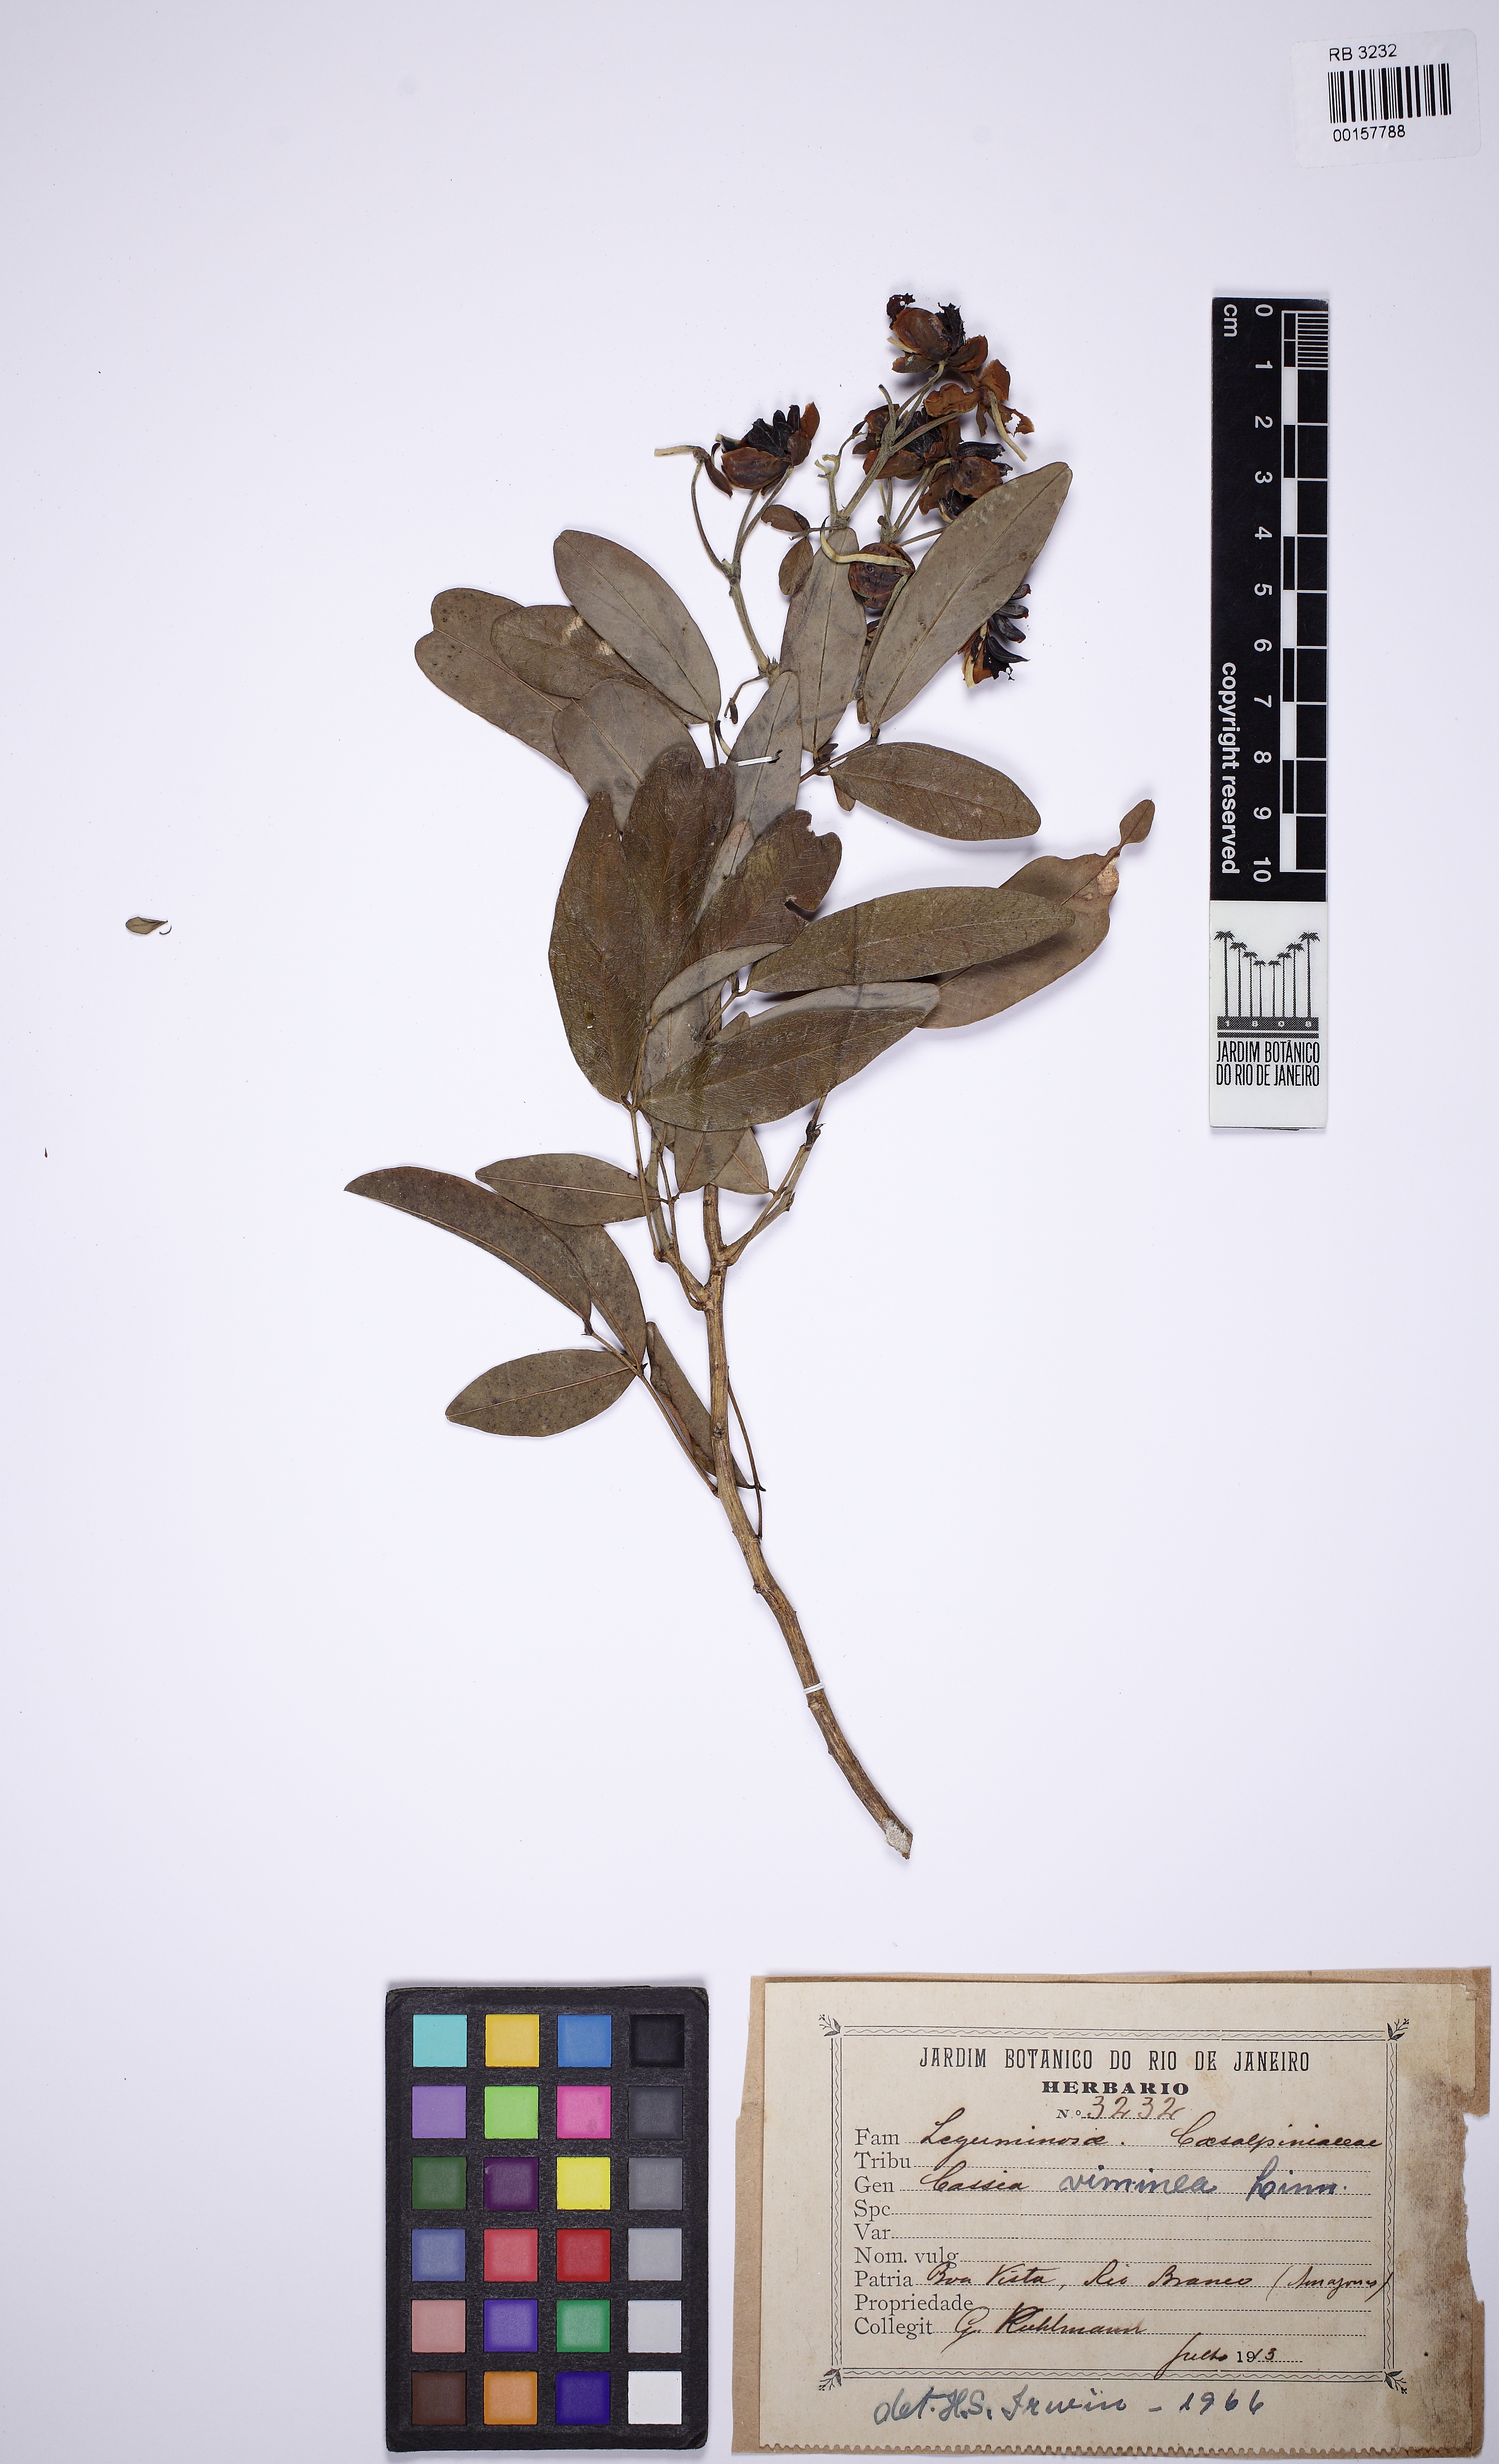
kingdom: Plantae
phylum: Tracheophyta
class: Magnoliopsida
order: Fabales
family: Fabaceae
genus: Senna
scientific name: Senna viminea
